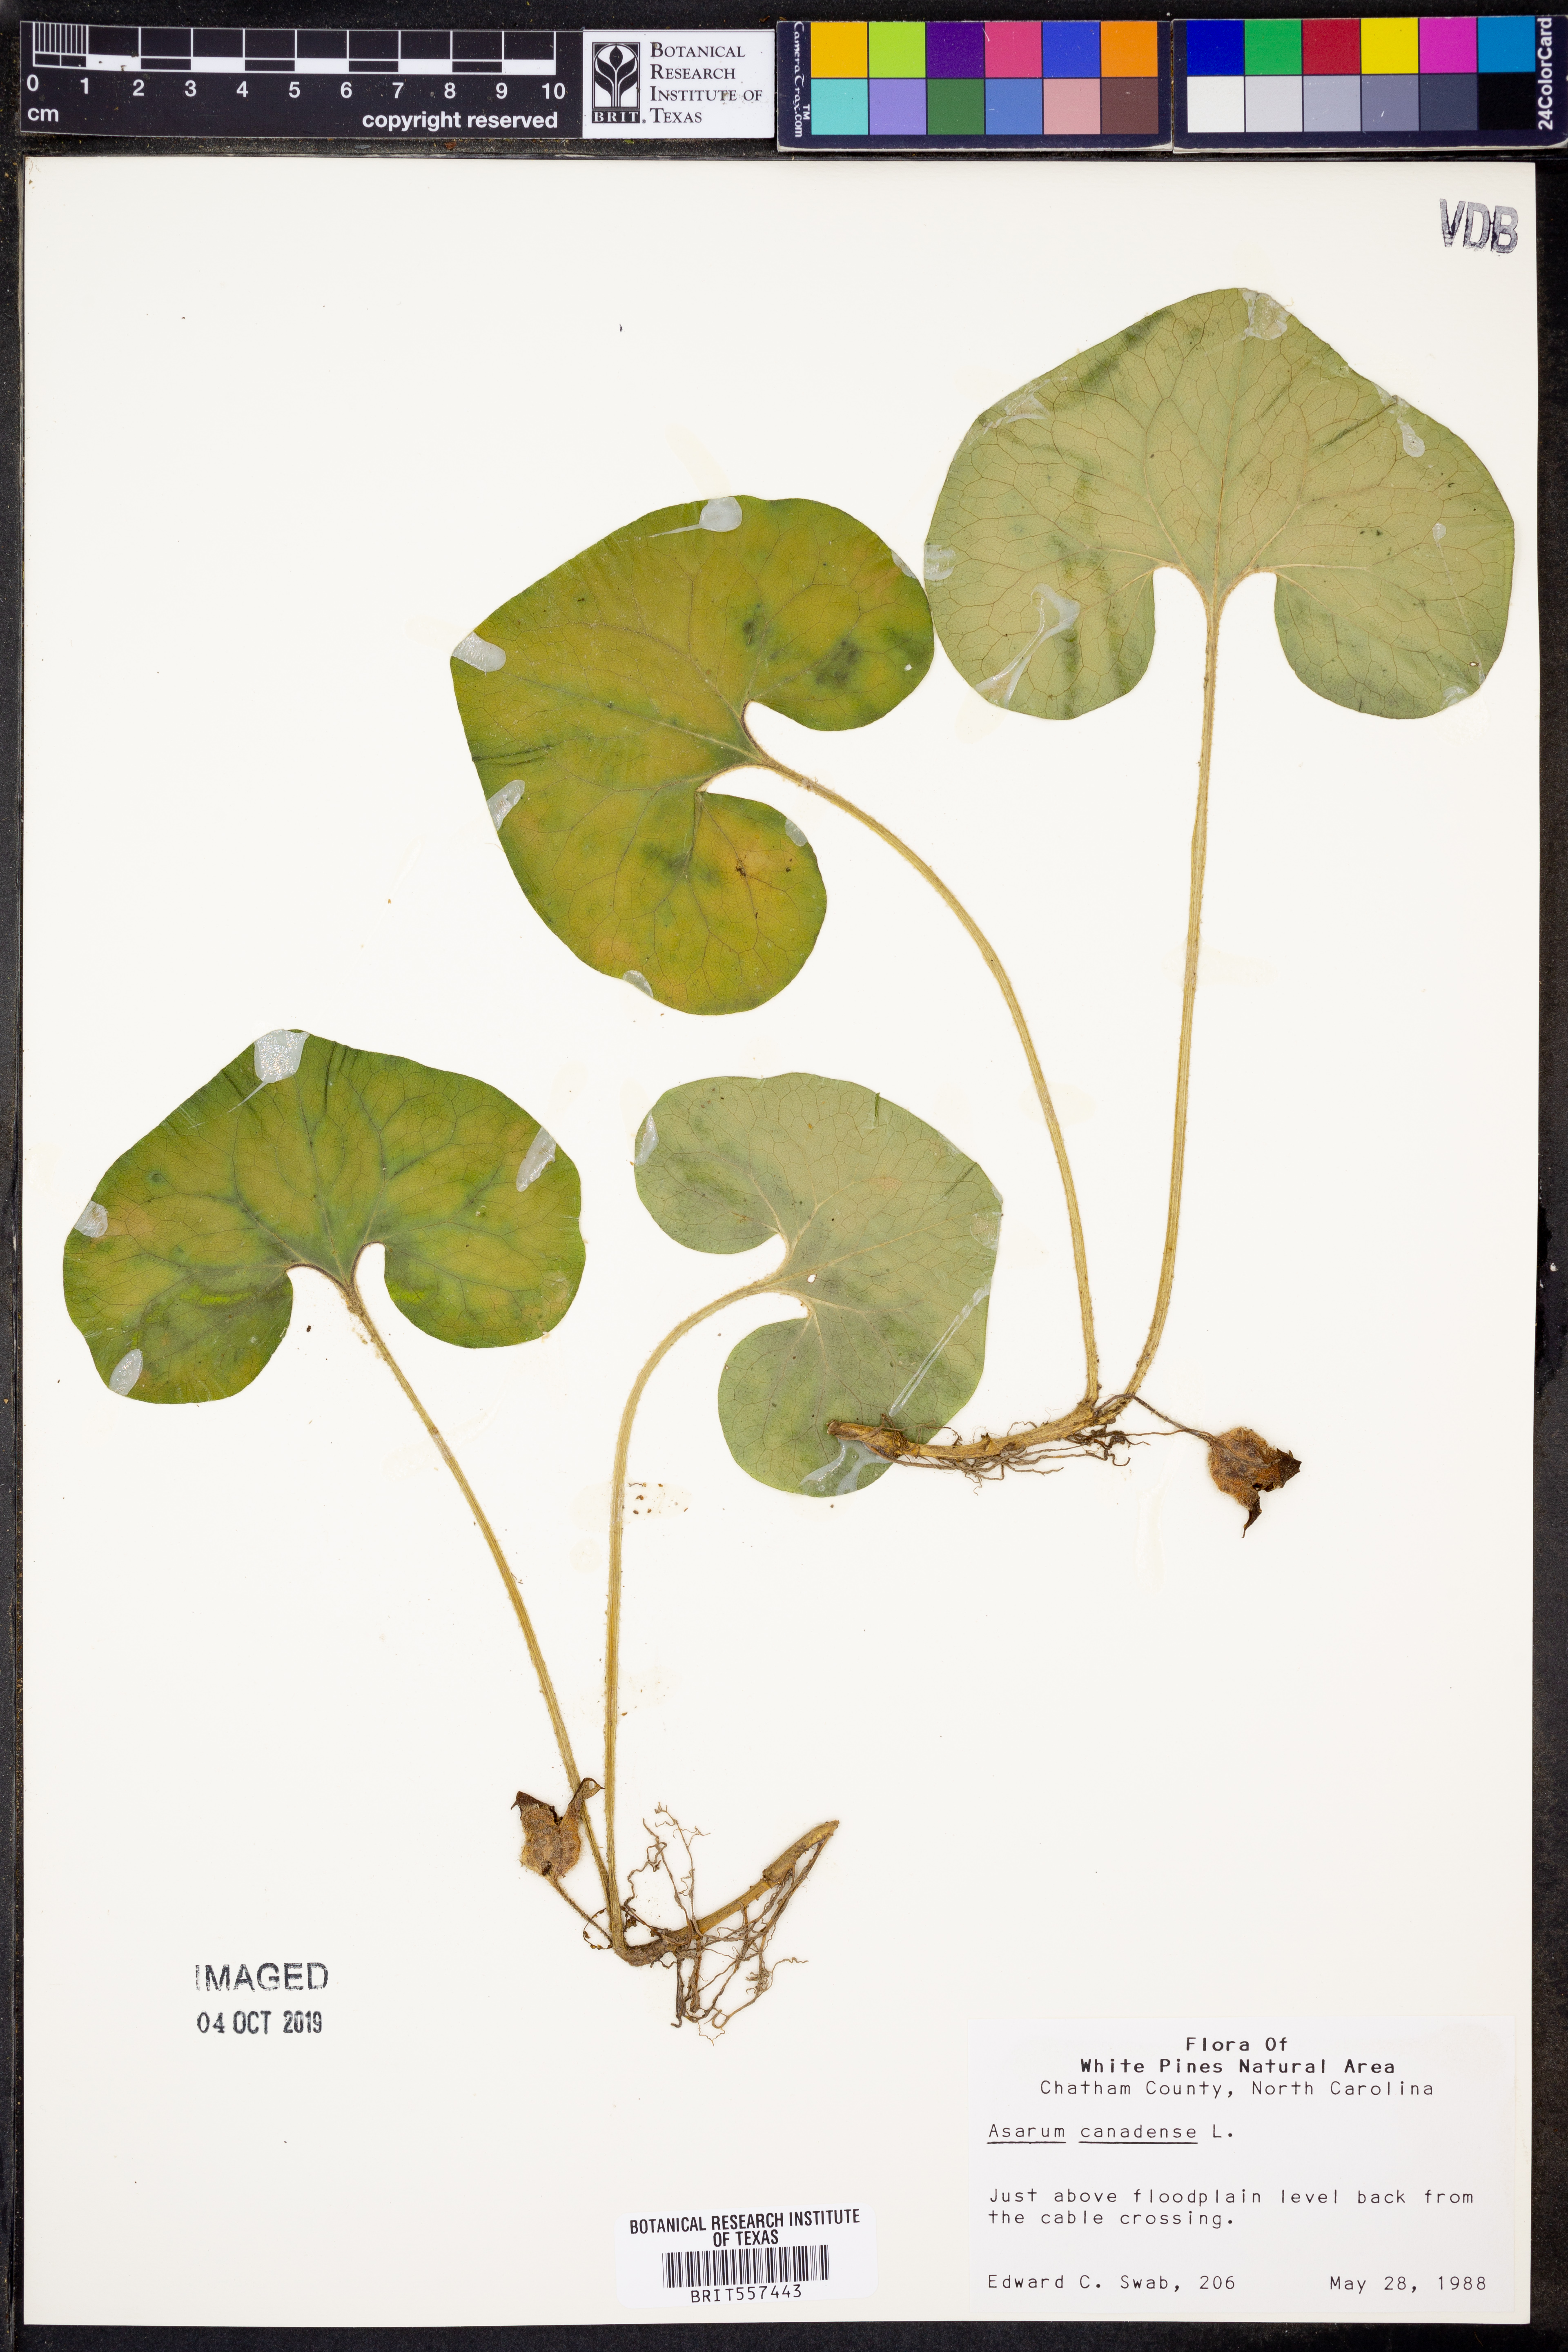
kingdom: Plantae
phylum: Tracheophyta
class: Magnoliopsida
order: Piperales
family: Aristolochiaceae
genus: Asarum
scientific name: Asarum canadense
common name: Wild ginger
